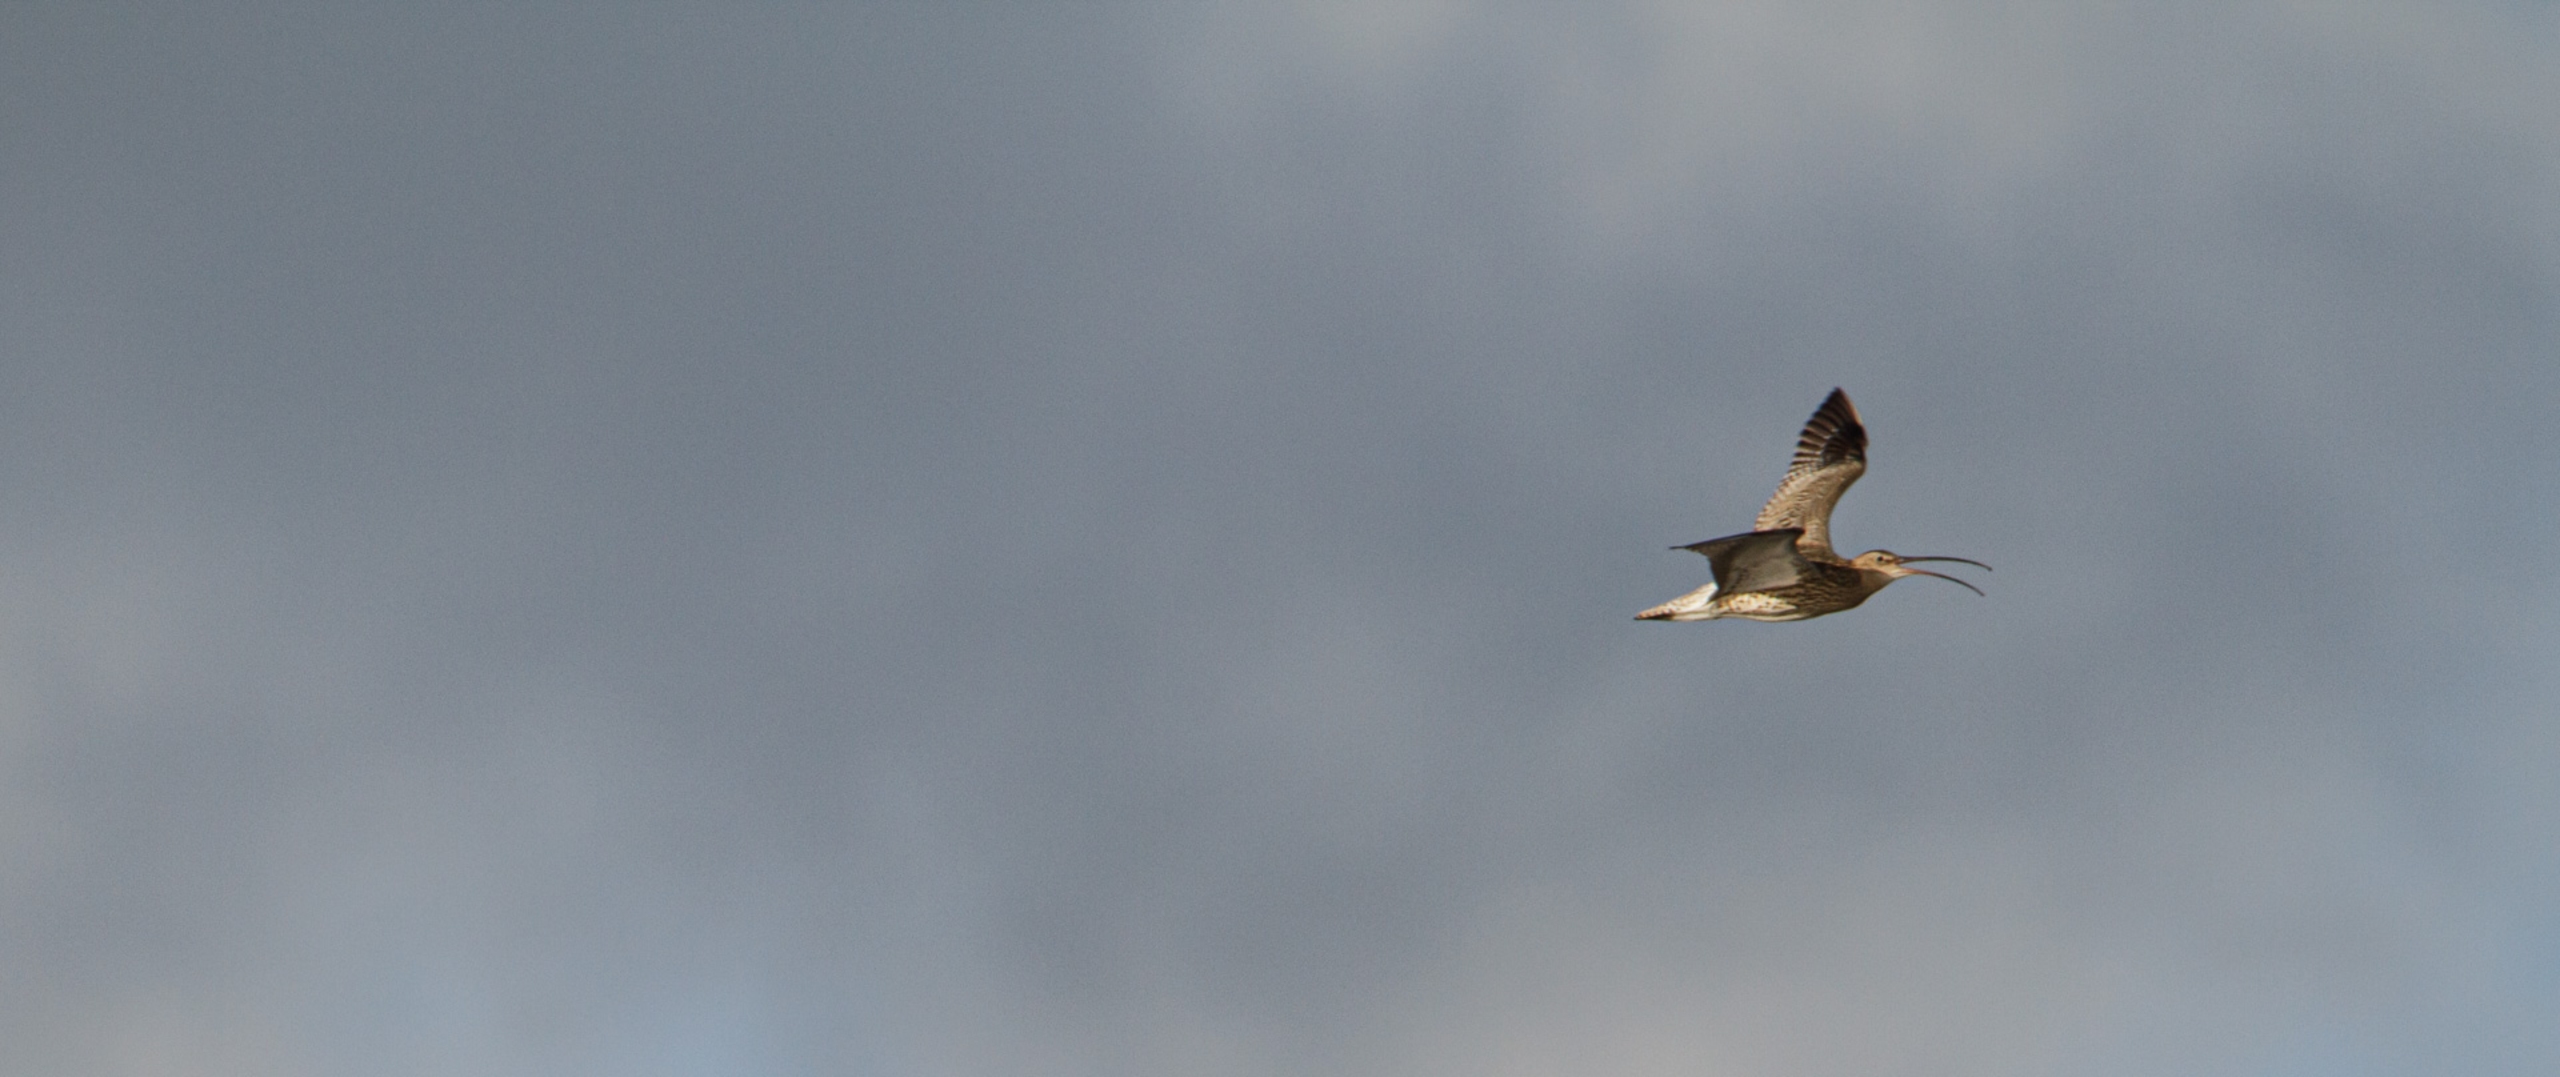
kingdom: Animalia
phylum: Chordata
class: Aves
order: Charadriiformes
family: Scolopacidae
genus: Numenius
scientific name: Numenius phaeopus
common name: Småspove
